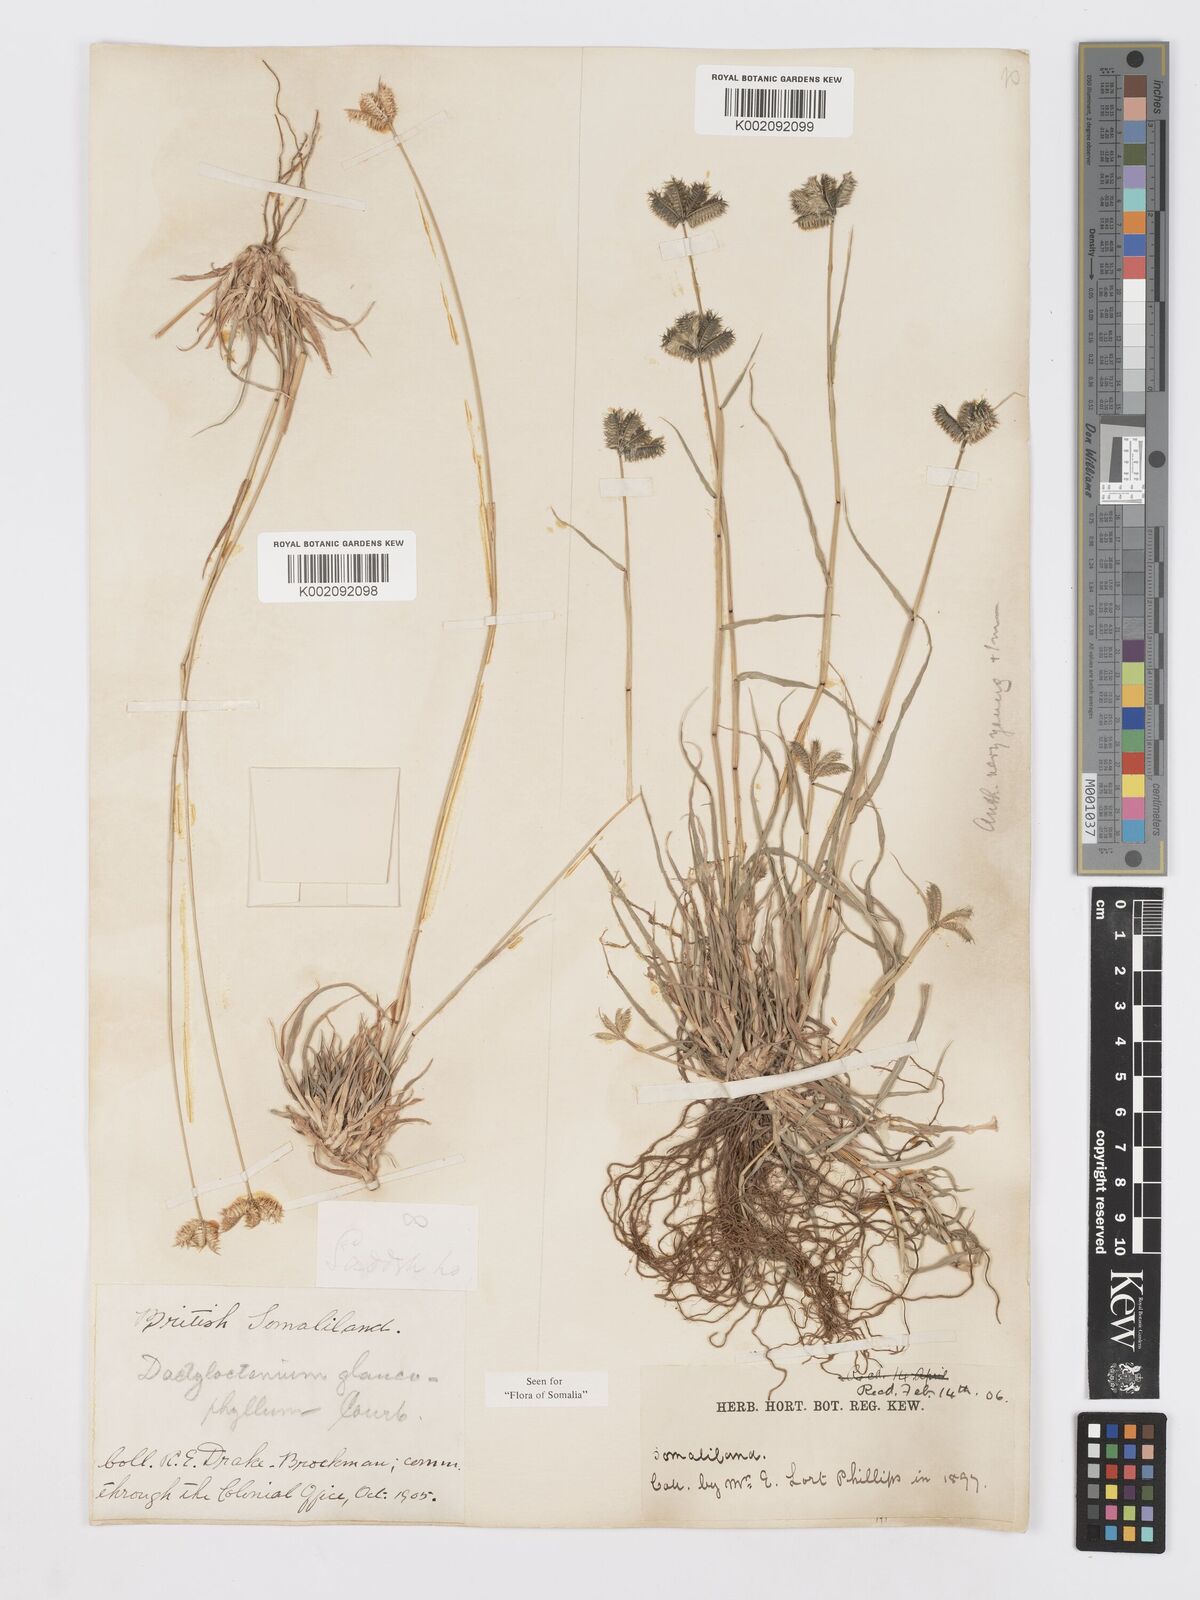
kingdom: Plantae
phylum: Tracheophyta
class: Liliopsida
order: Poales
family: Poaceae
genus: Dactyloctenium
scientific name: Dactyloctenium scindicum
